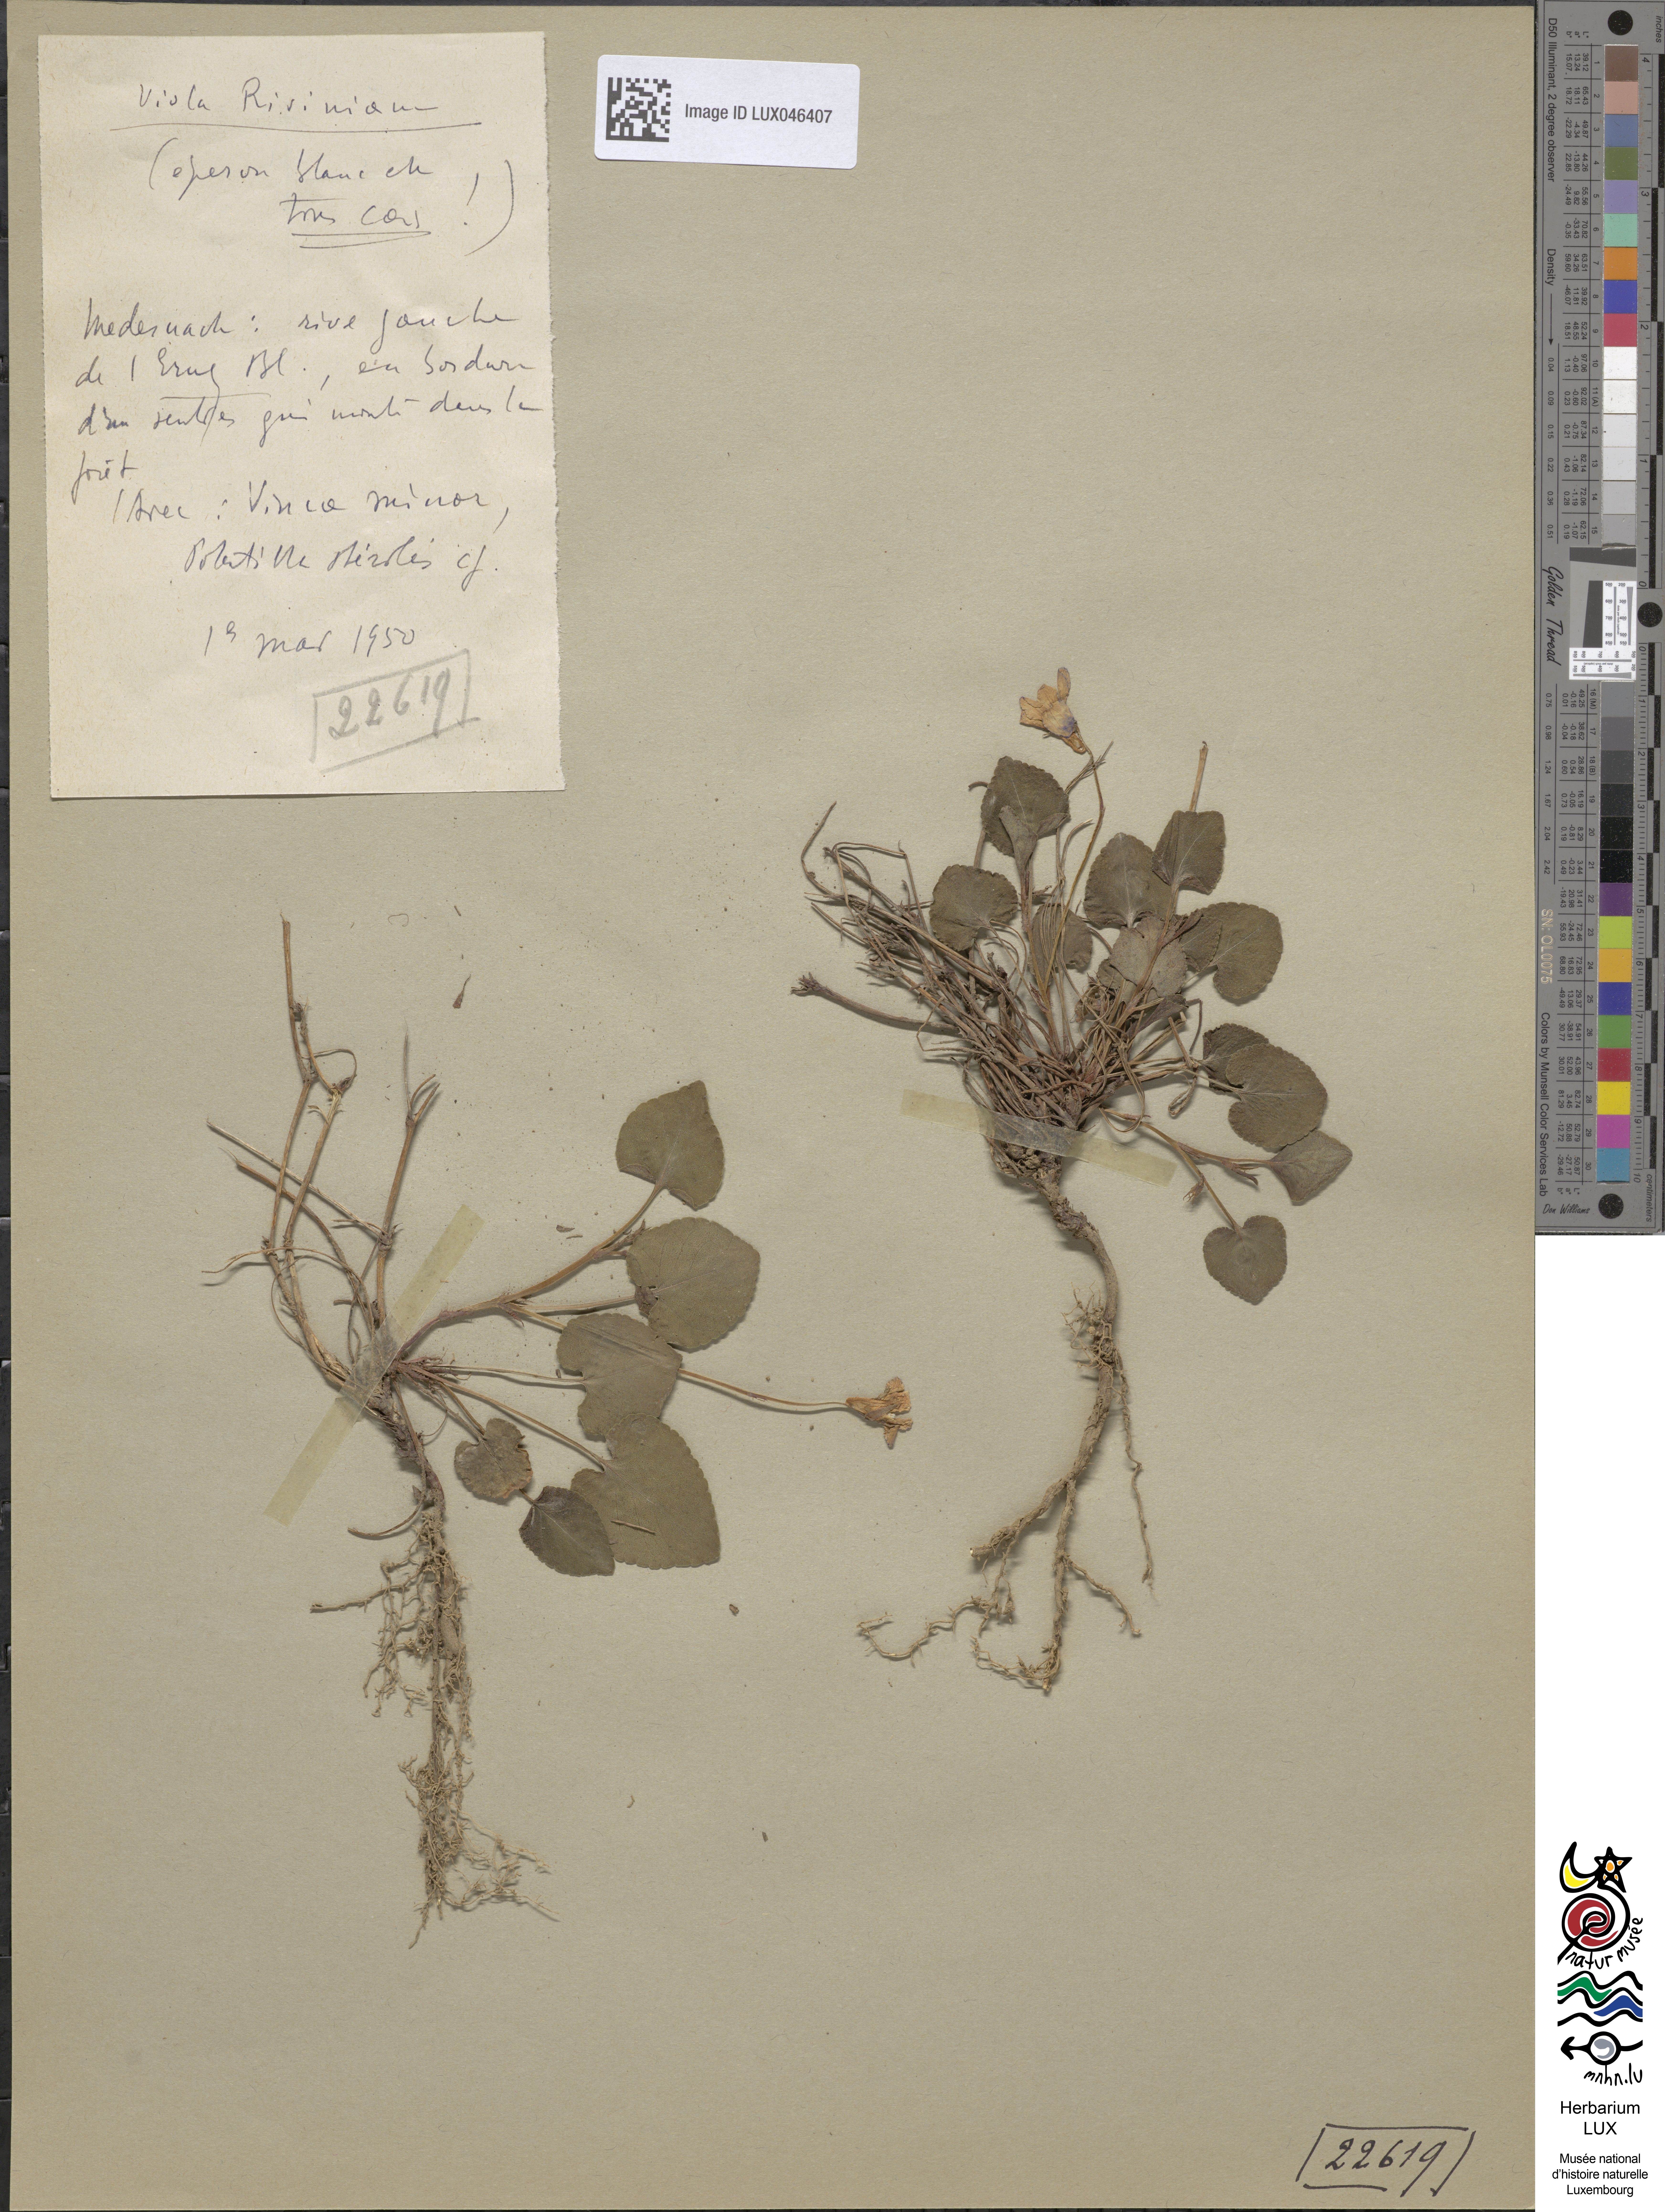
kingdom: Plantae
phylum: Tracheophyta
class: Magnoliopsida
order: Malpighiales
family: Violaceae
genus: Viola
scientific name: Viola riviniana
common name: Common dog-violet
